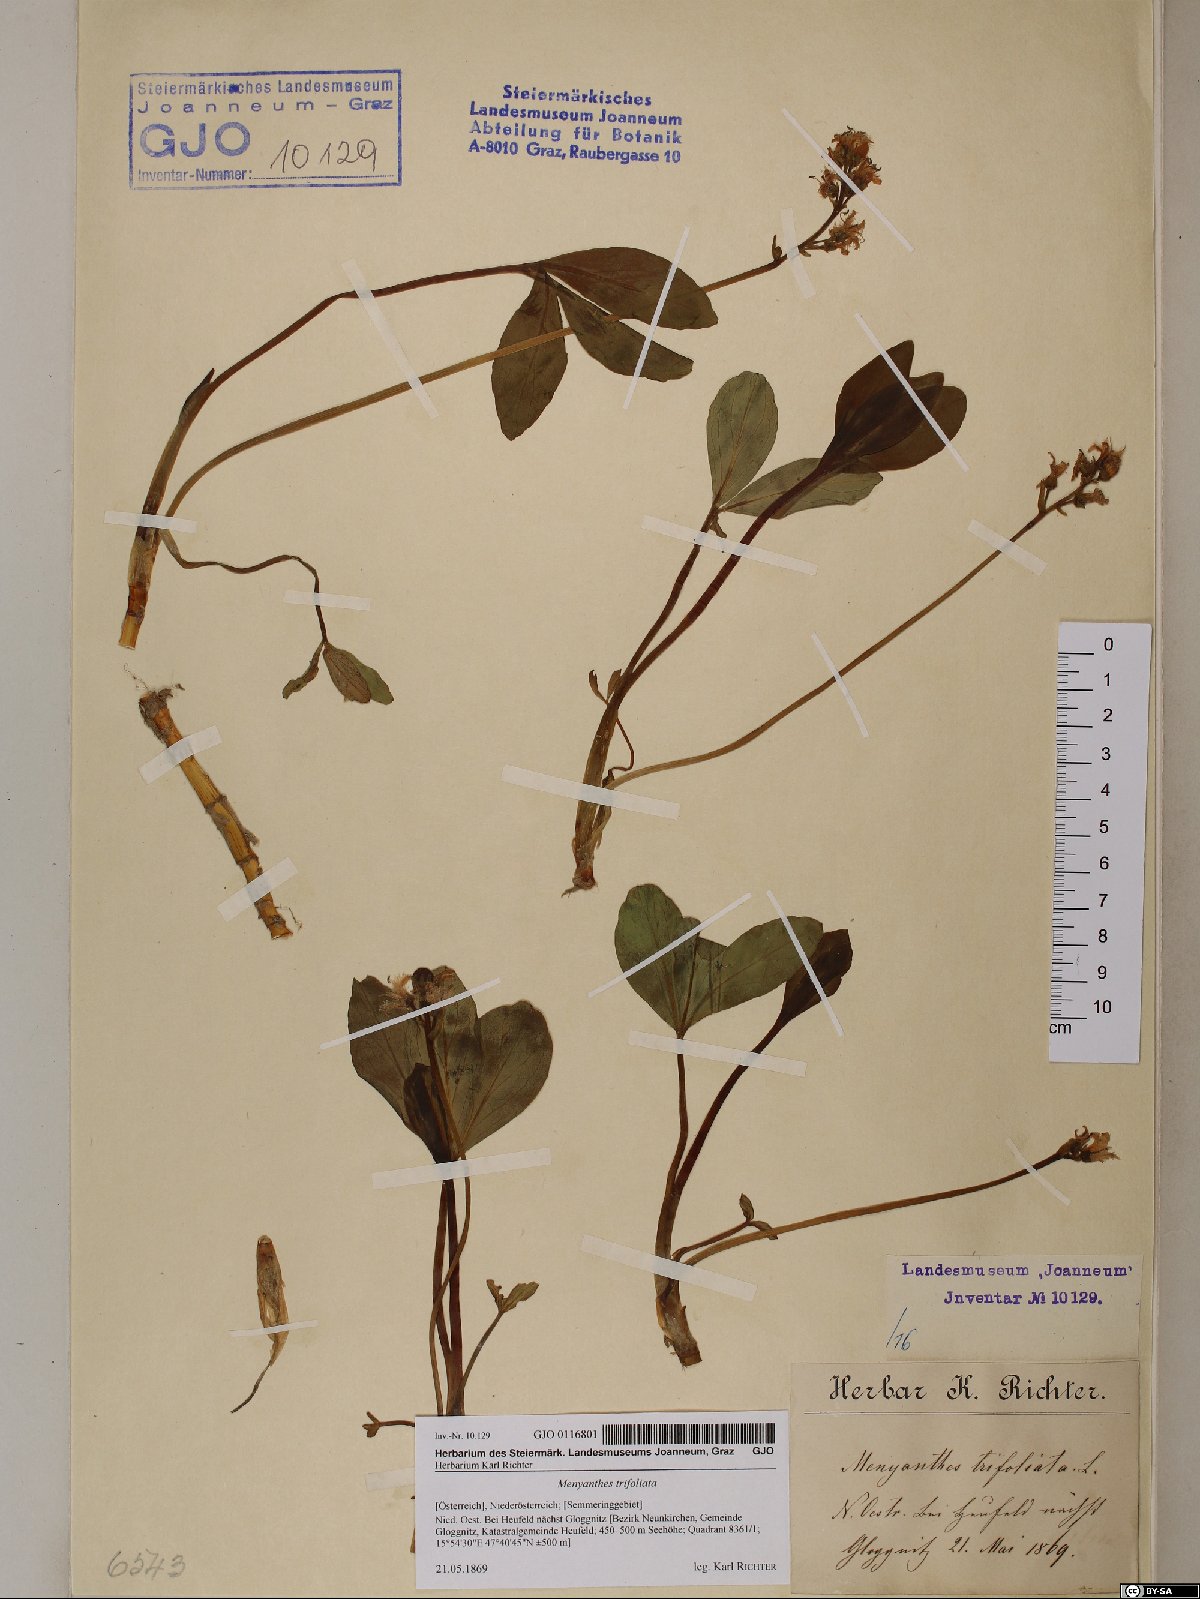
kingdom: Plantae
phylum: Tracheophyta
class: Magnoliopsida
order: Asterales
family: Menyanthaceae
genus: Menyanthes
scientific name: Menyanthes trifoliata
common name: Bogbean
